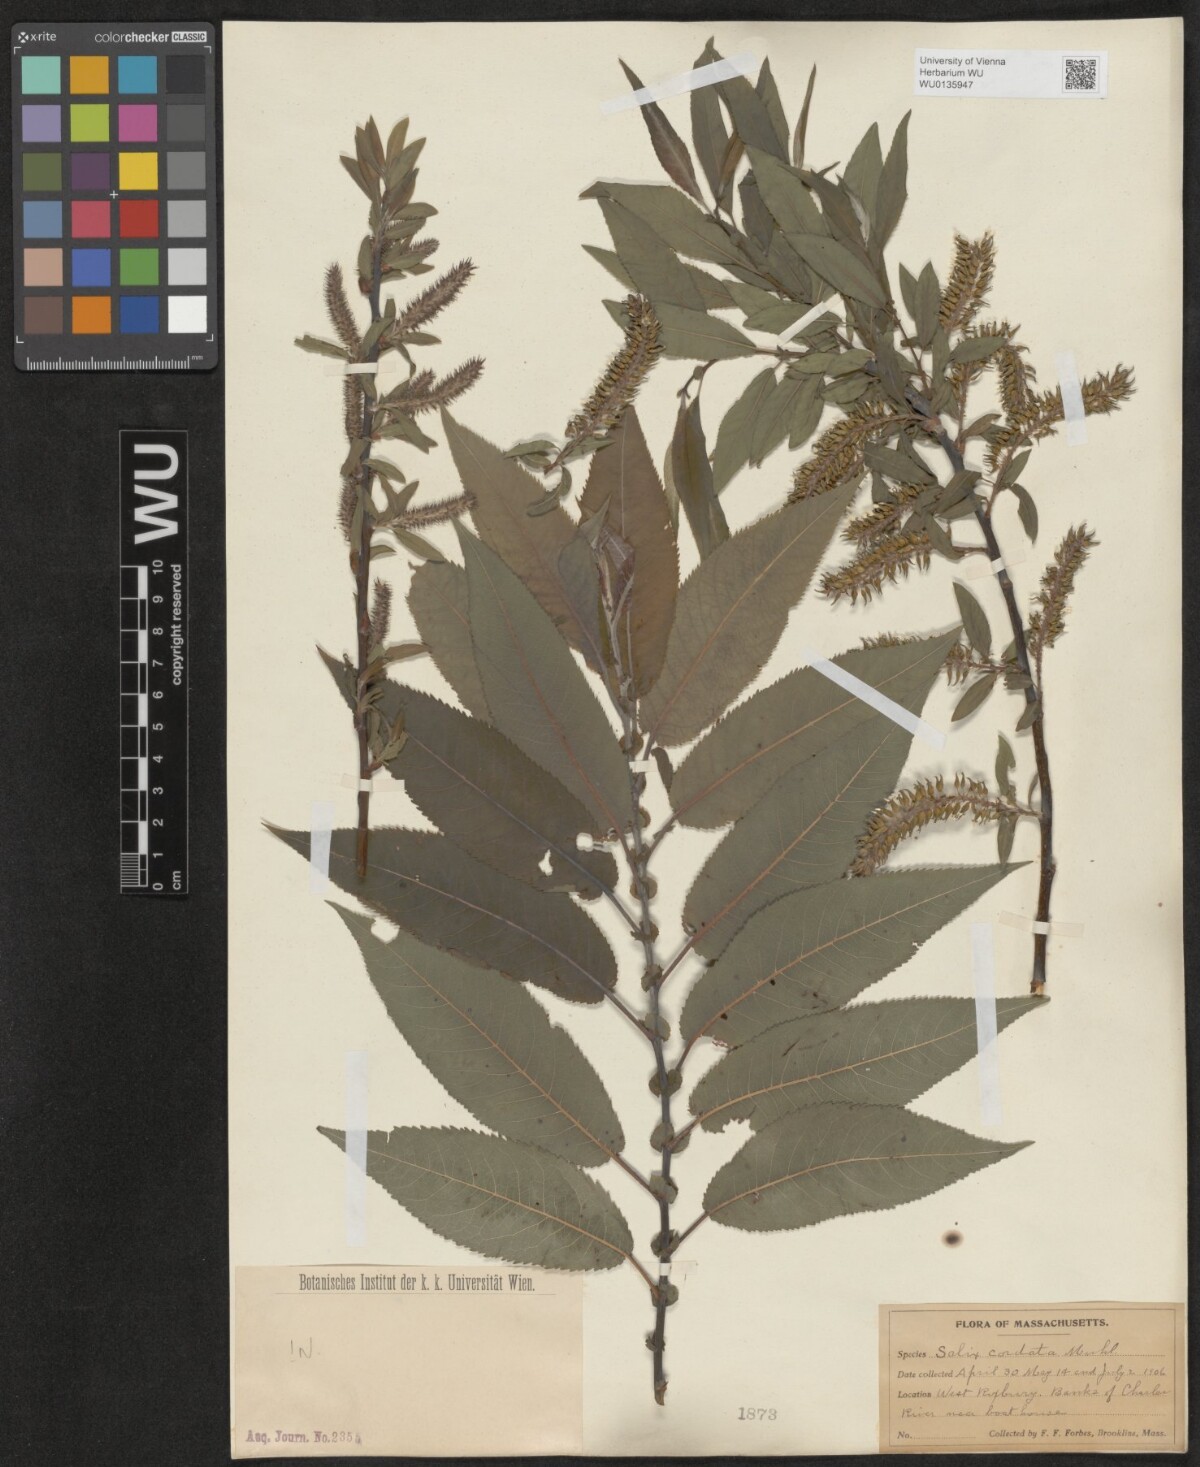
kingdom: Plantae
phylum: Tracheophyta
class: Magnoliopsida
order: Malpighiales
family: Salicaceae
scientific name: Salicaceae
